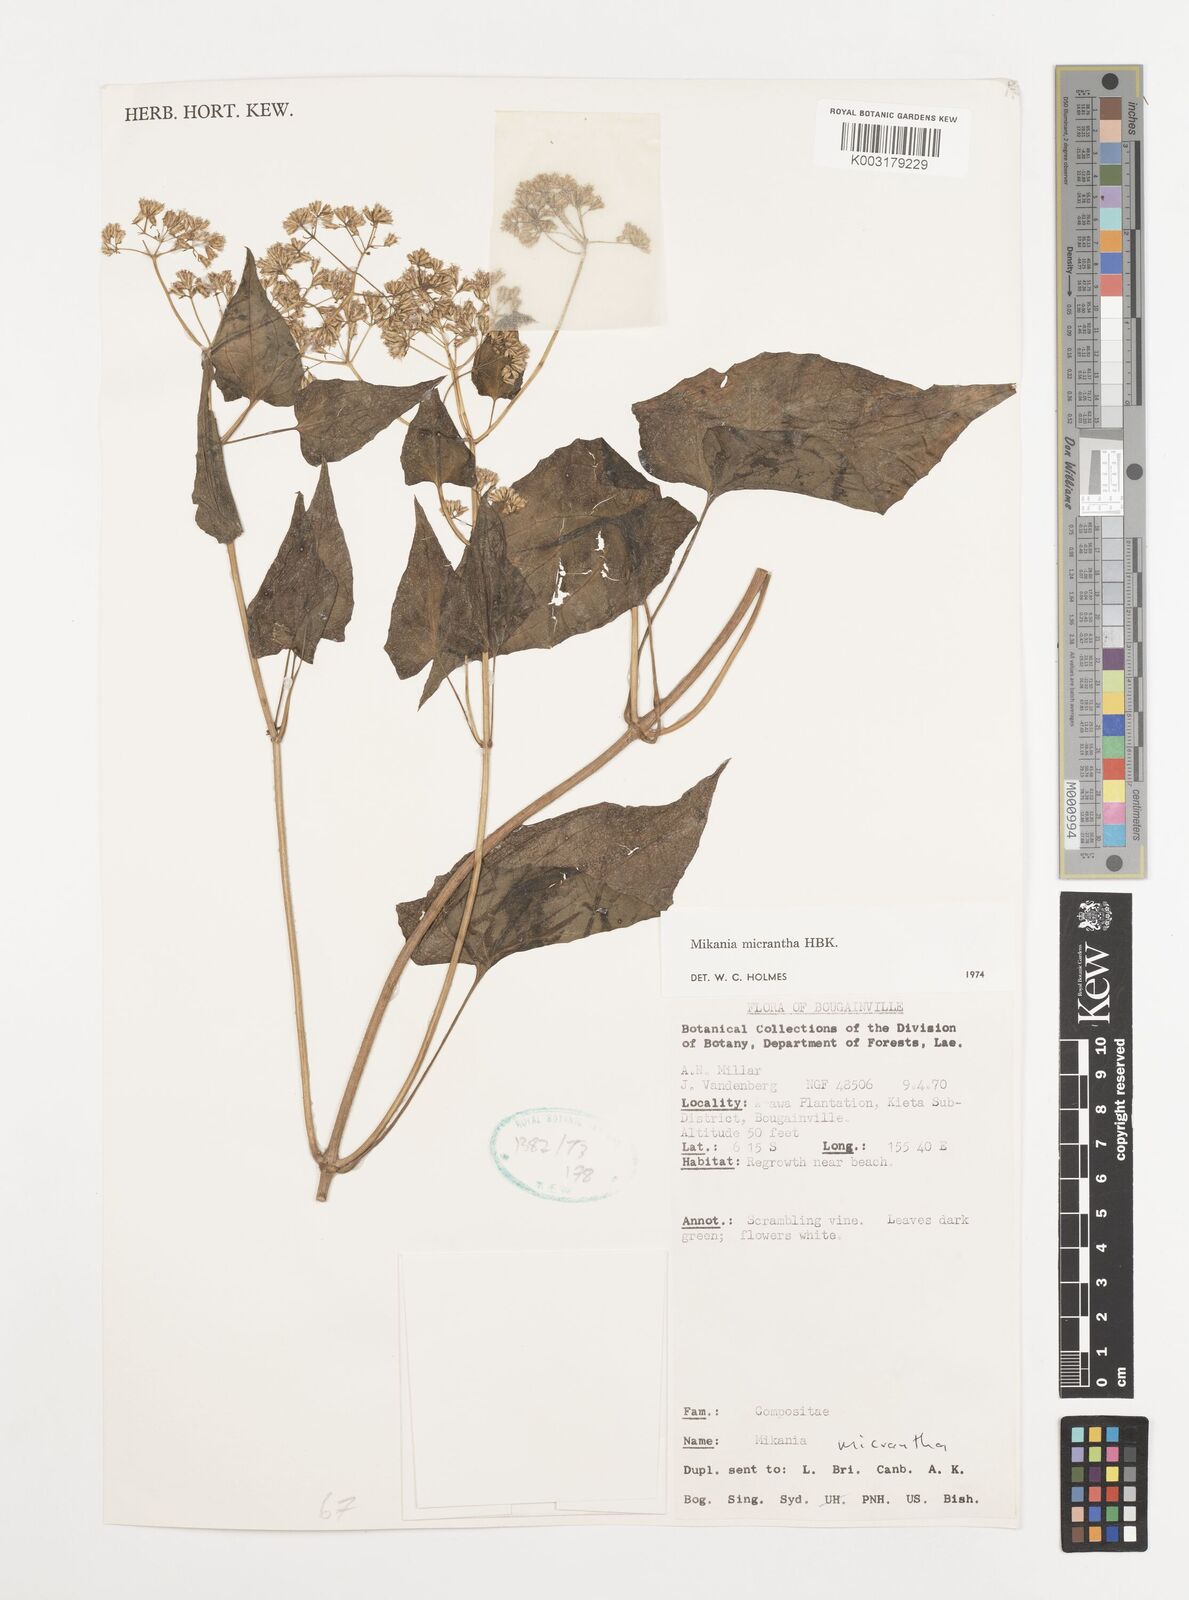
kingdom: Plantae
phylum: Tracheophyta
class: Magnoliopsida
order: Asterales
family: Asteraceae
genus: Mikania
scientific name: Mikania micrantha
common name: Mile-a-minute
